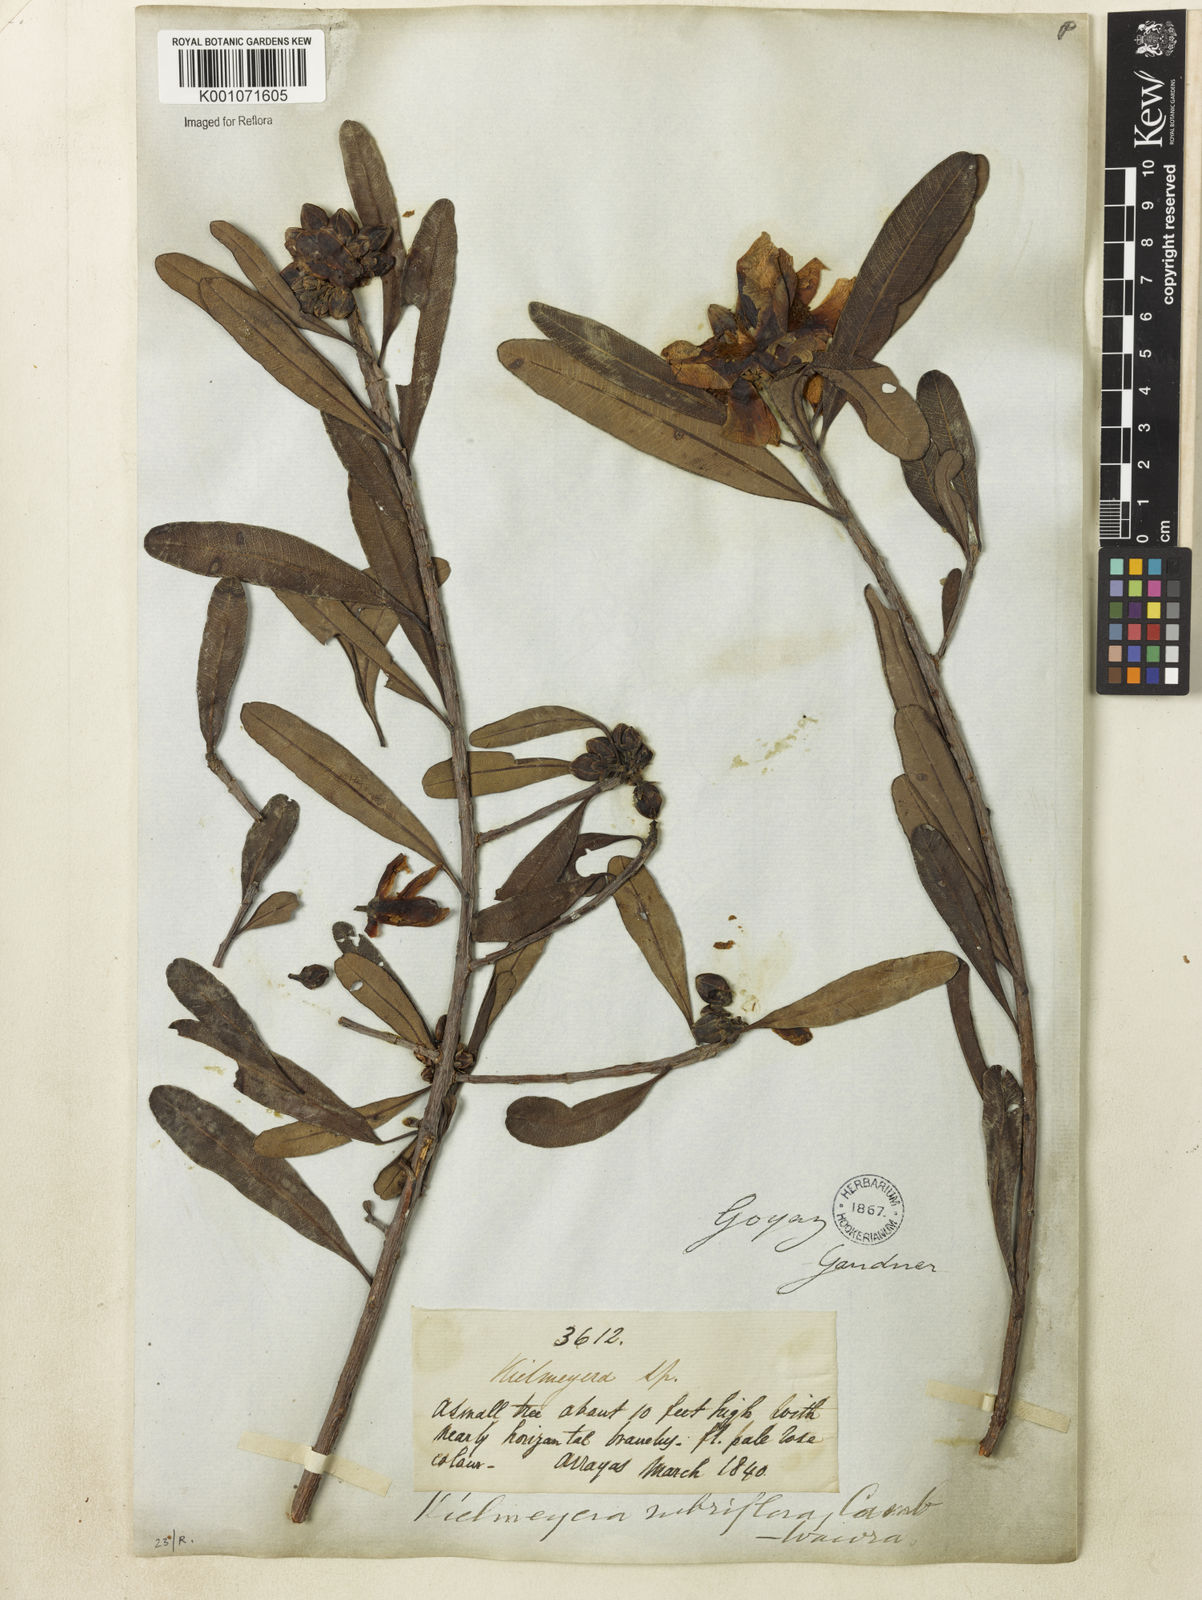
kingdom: Plantae
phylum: Tracheophyta
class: Magnoliopsida
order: Malpighiales
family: Calophyllaceae
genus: Kielmeyera
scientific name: Kielmeyera rubriflora
